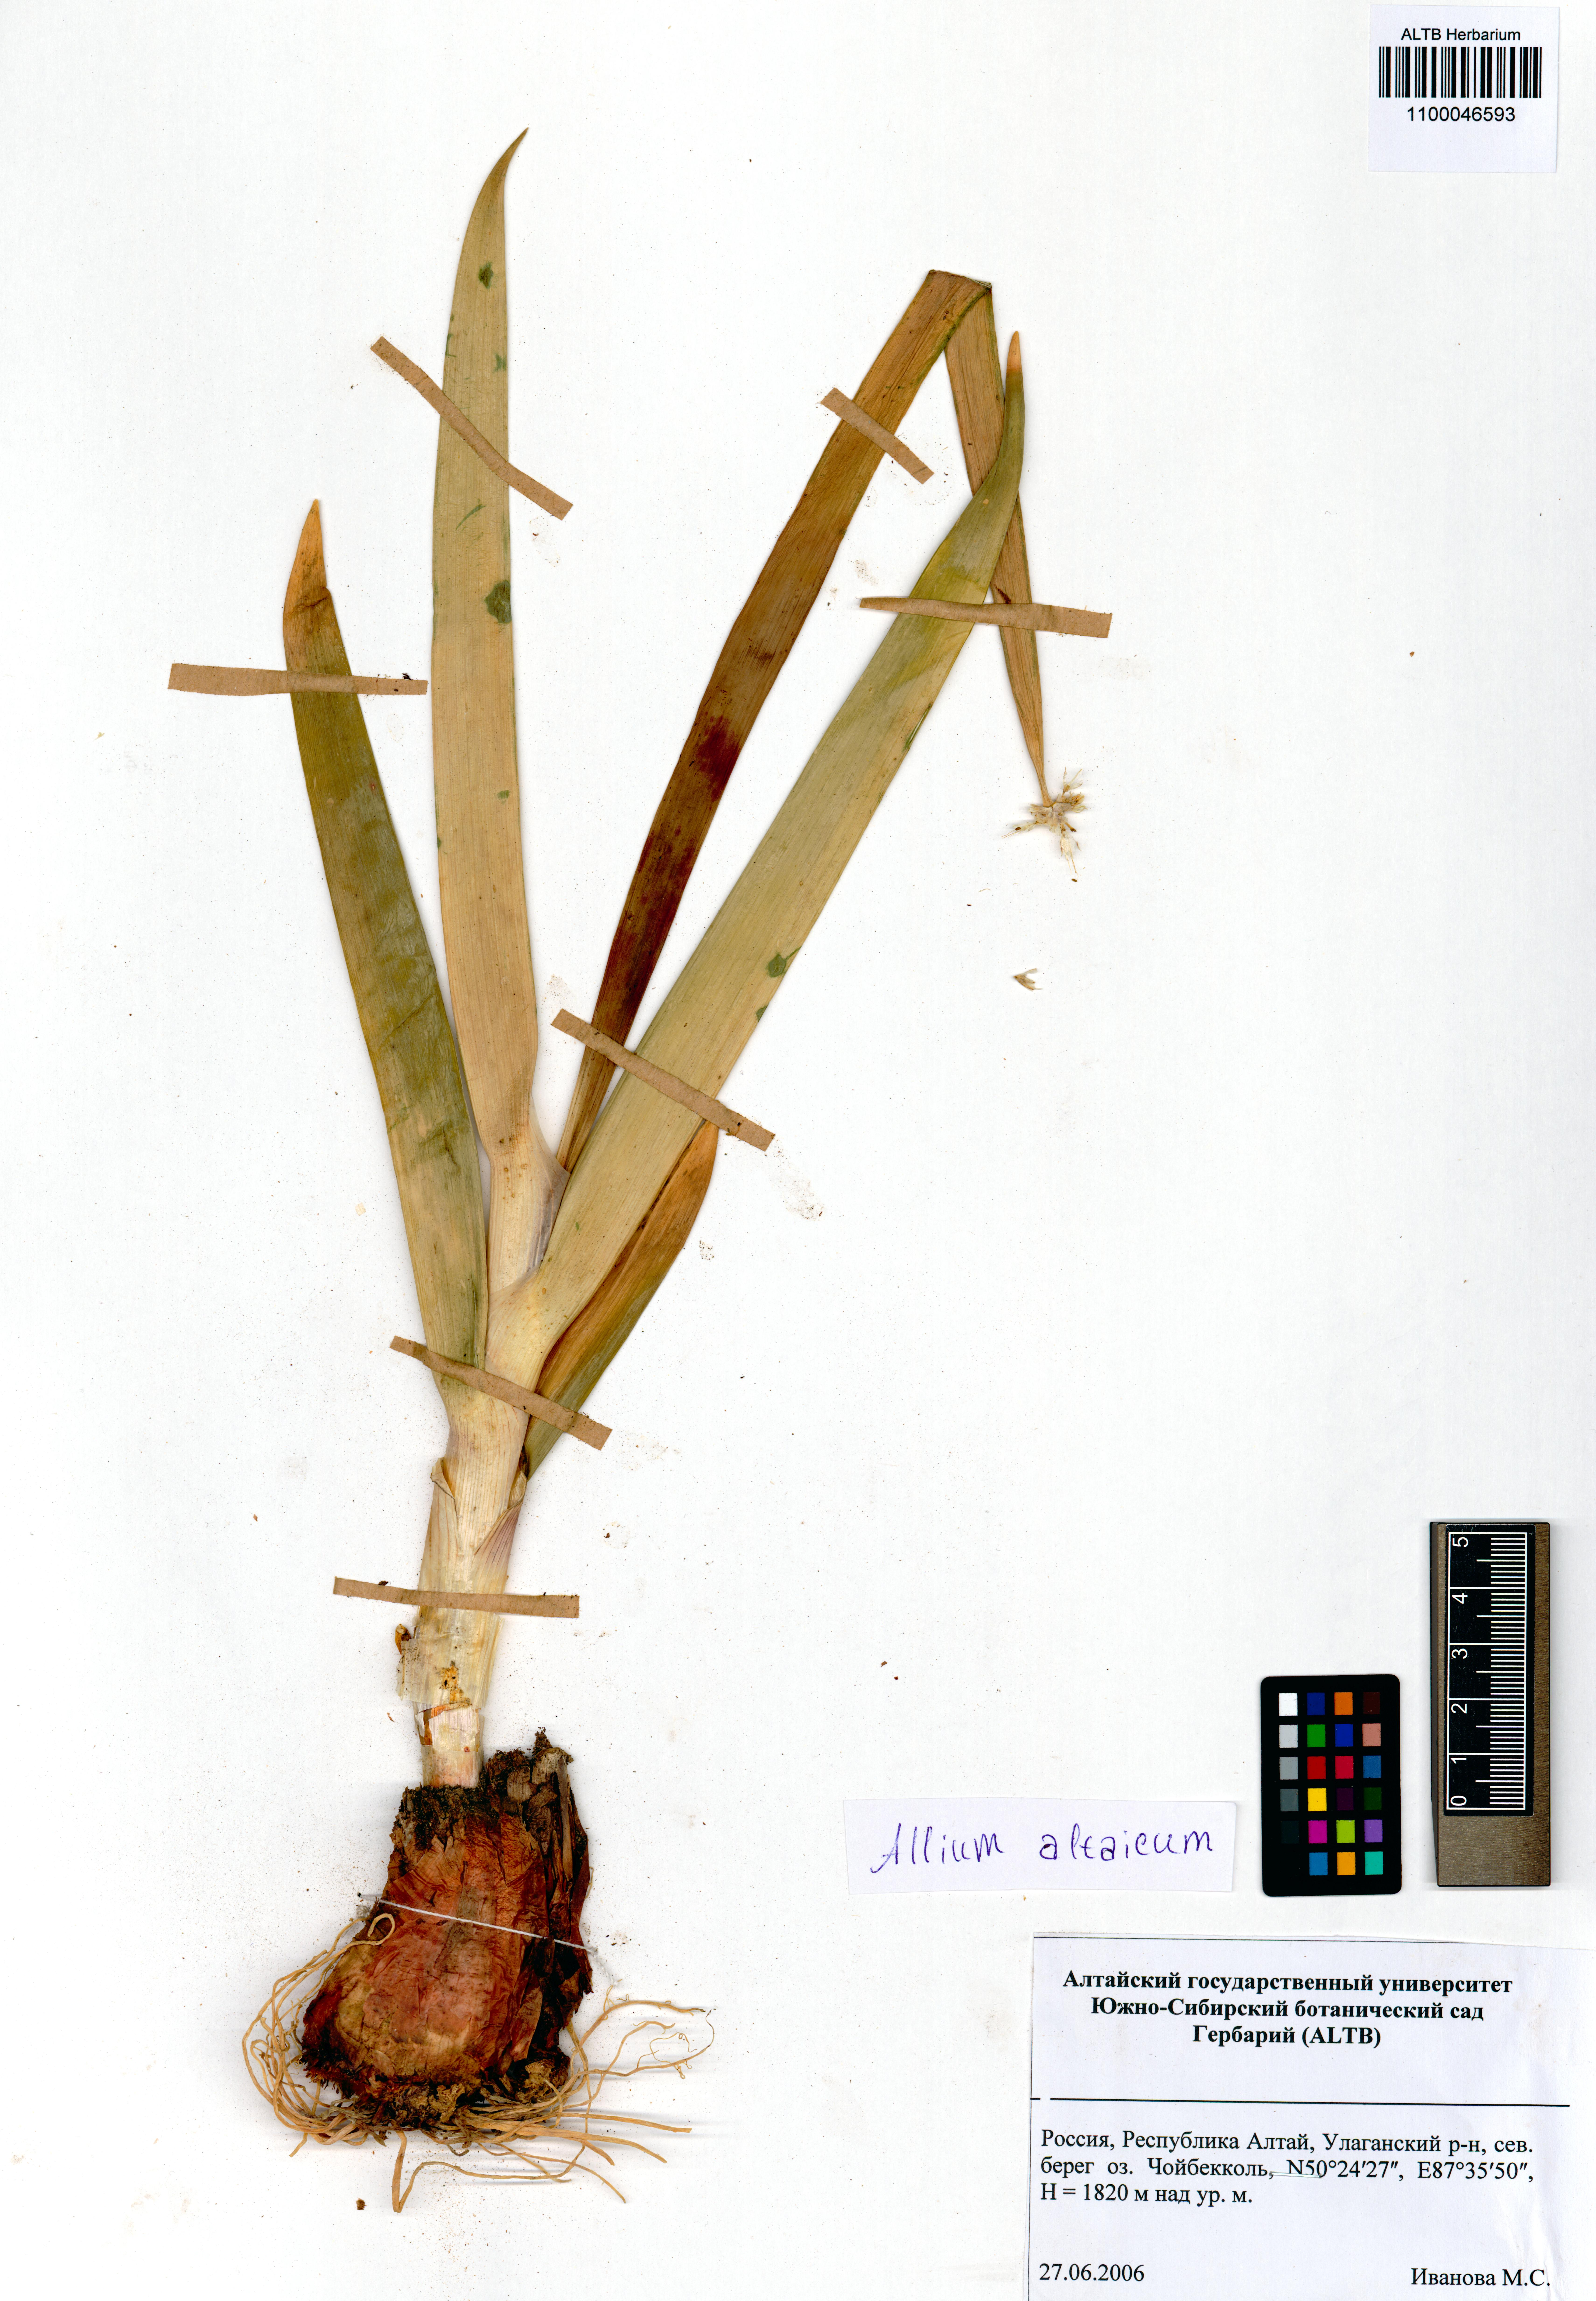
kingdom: Plantae
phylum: Tracheophyta
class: Liliopsida
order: Asparagales
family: Amaryllidaceae
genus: Allium
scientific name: Allium altaicum
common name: Altai onion
